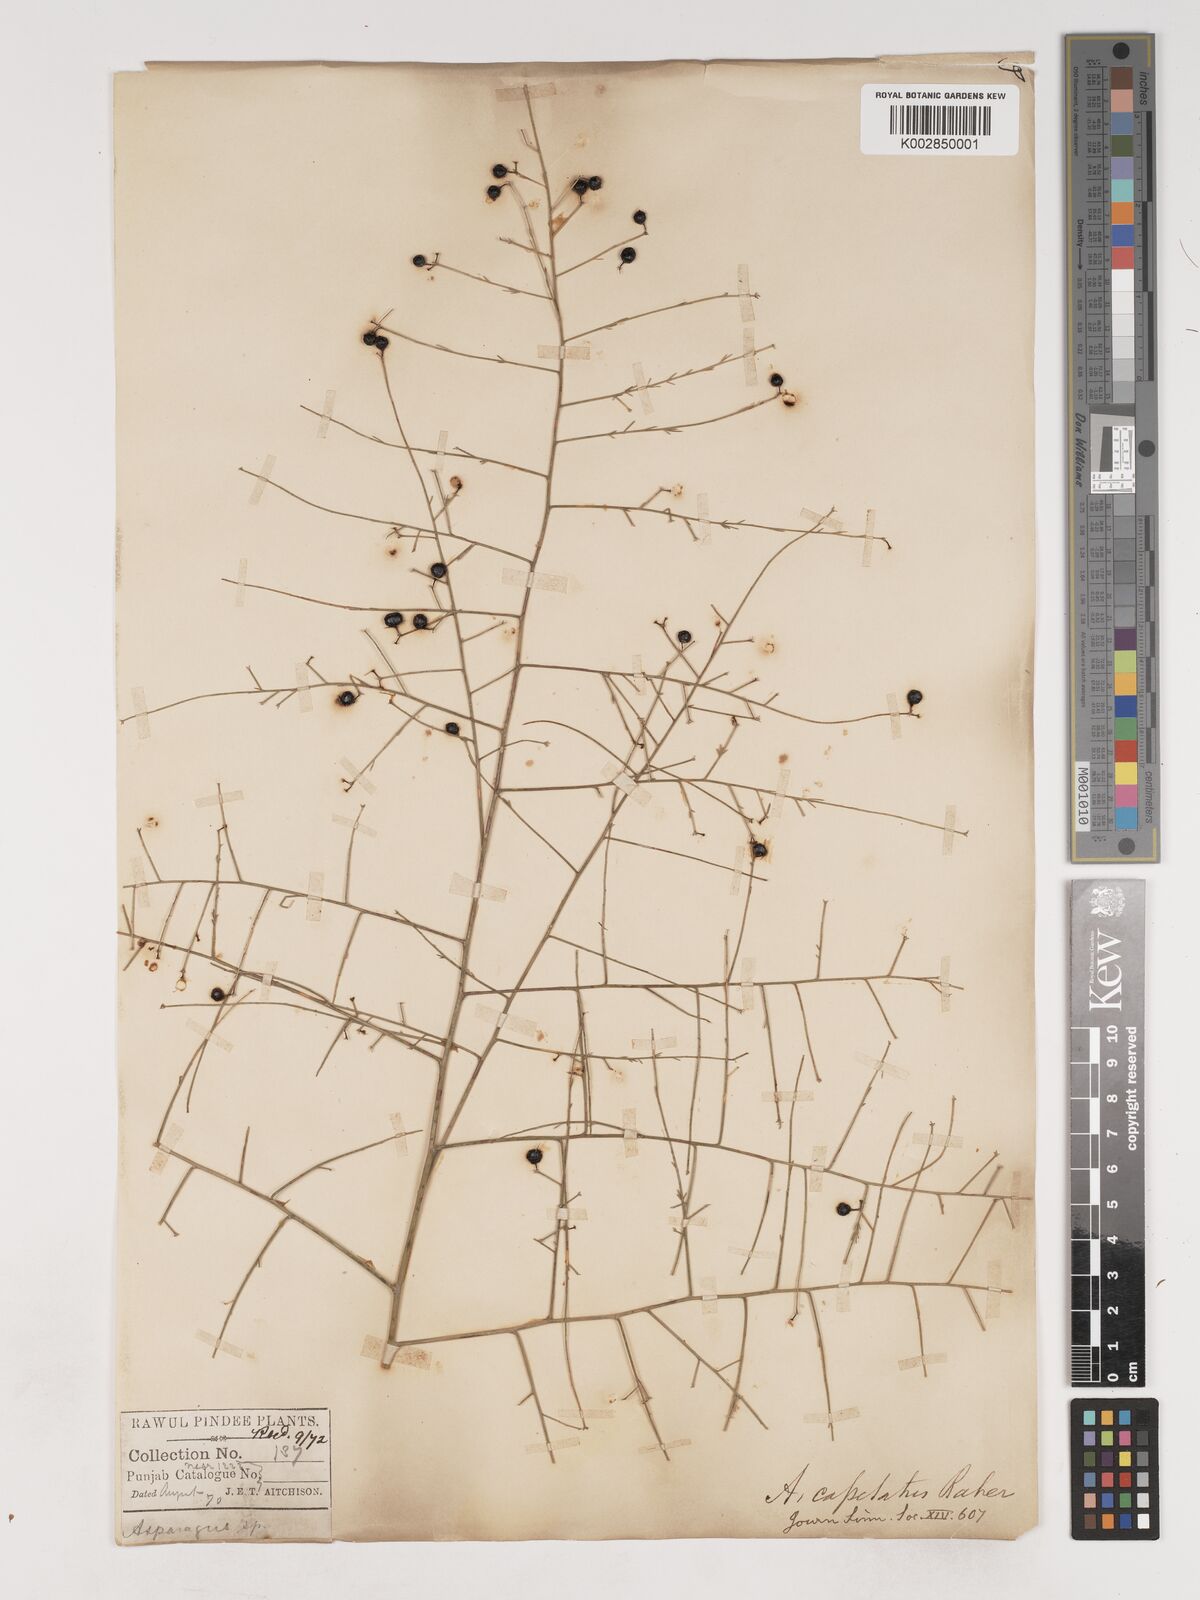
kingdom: Plantae
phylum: Tracheophyta
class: Liliopsida
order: Asparagales
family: Asparagaceae
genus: Asparagus
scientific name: Asparagus capitatus
